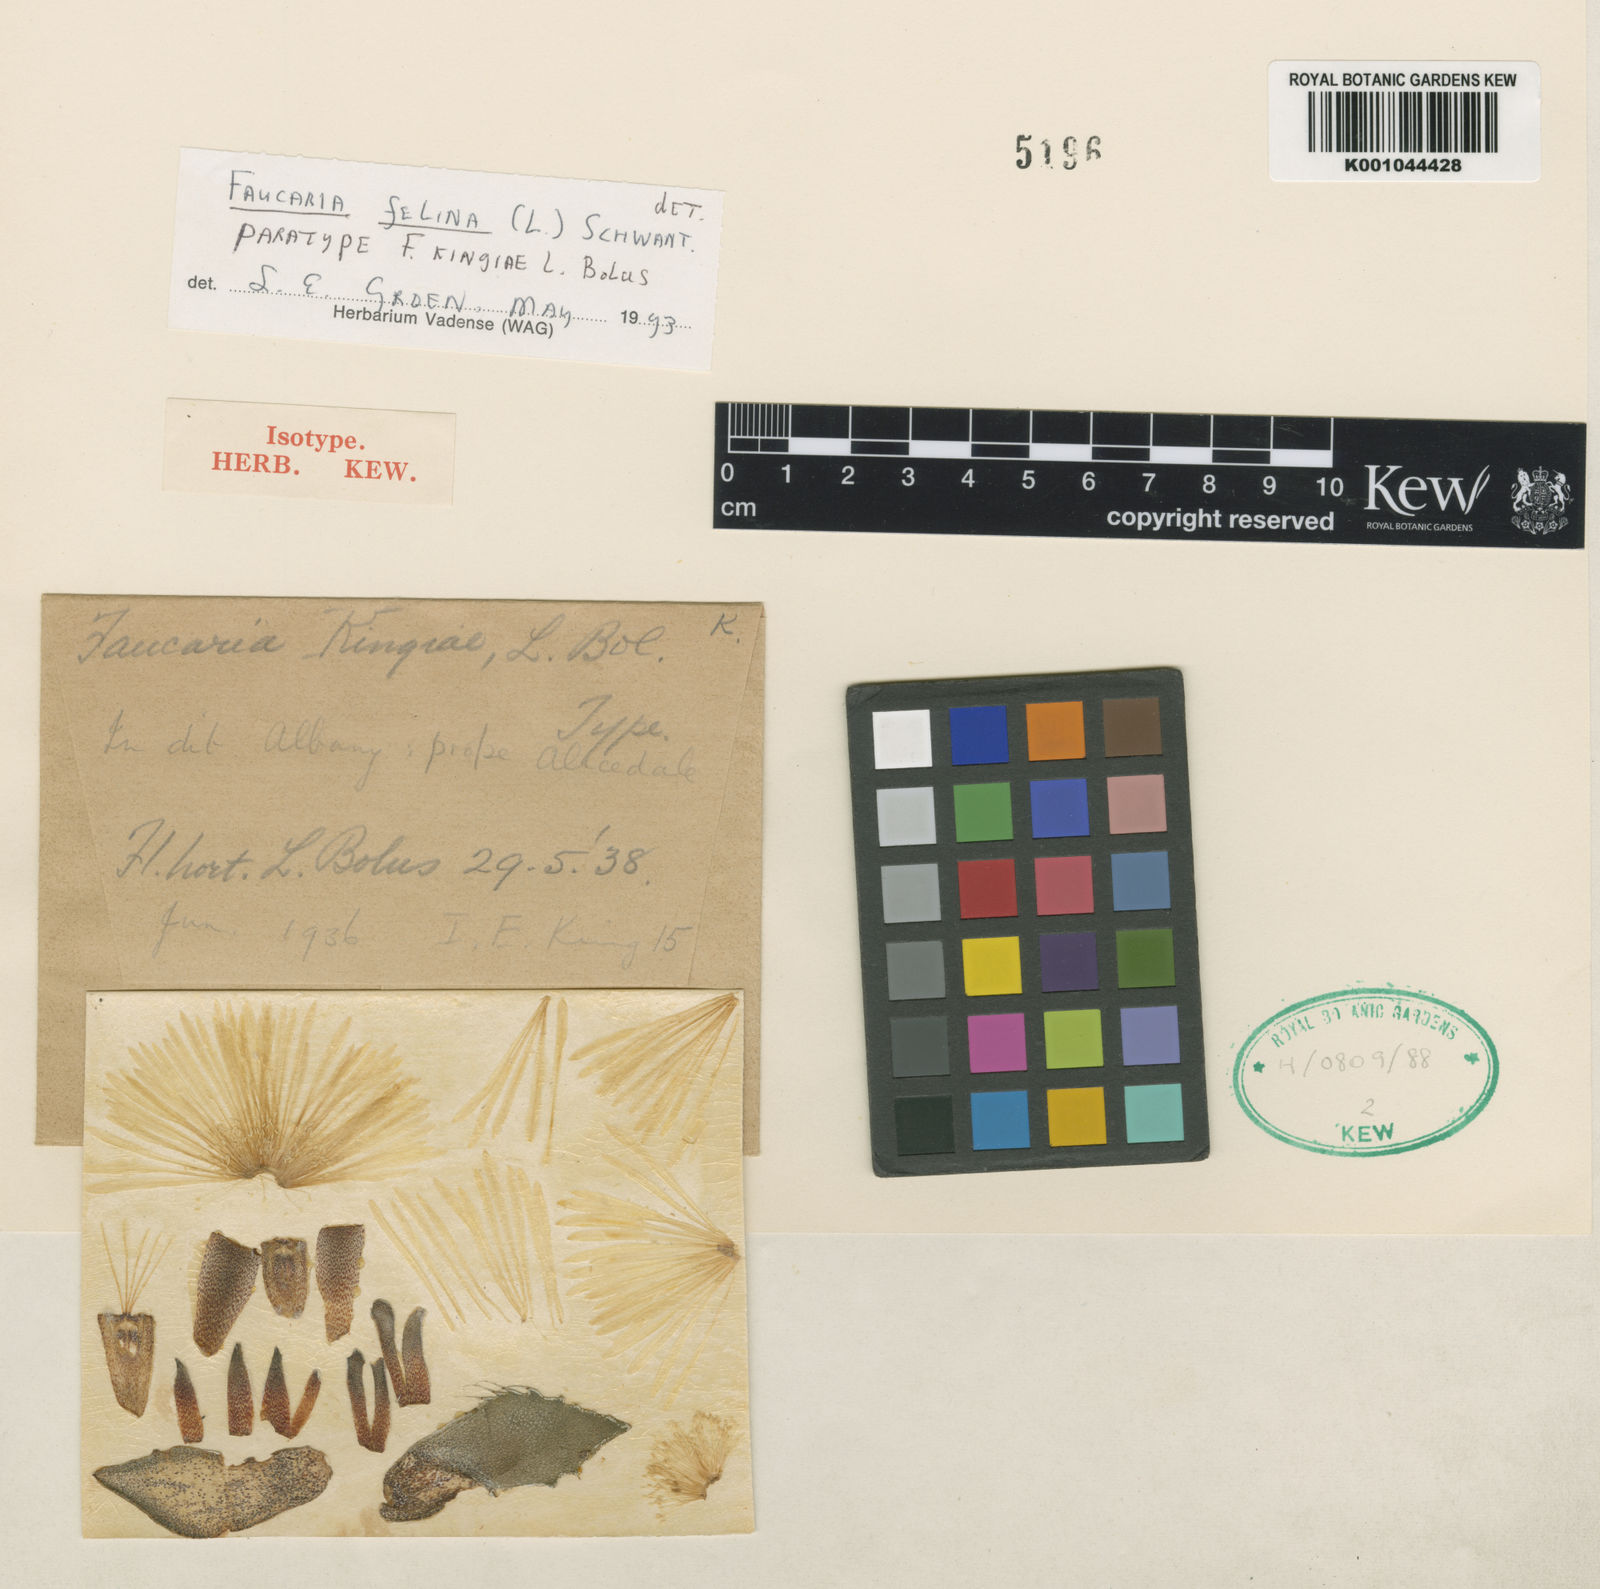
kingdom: Plantae
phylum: Tracheophyta
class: Magnoliopsida
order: Caryophyllales
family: Aizoaceae
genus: Faucaria
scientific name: Faucaria felina
